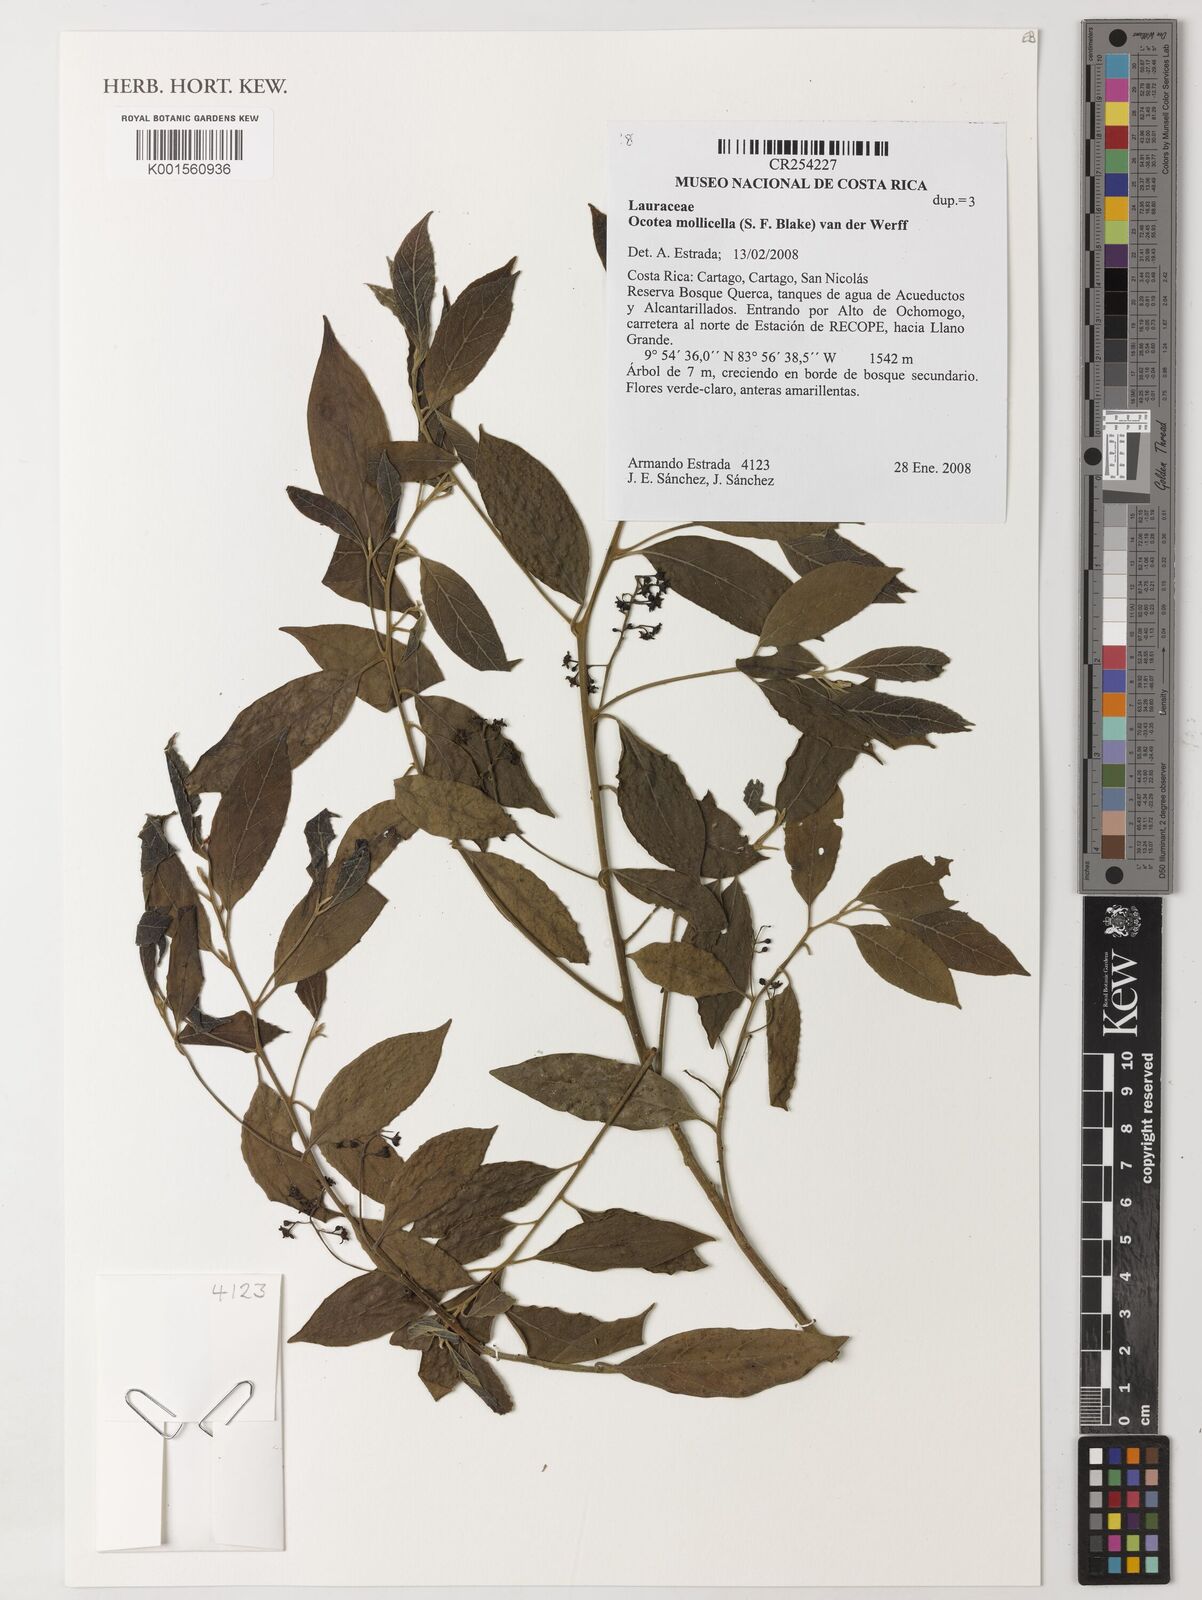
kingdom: Plantae
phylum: Tracheophyta
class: Magnoliopsida
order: Laurales
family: Lauraceae
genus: Ocotea
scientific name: Ocotea mollicella
